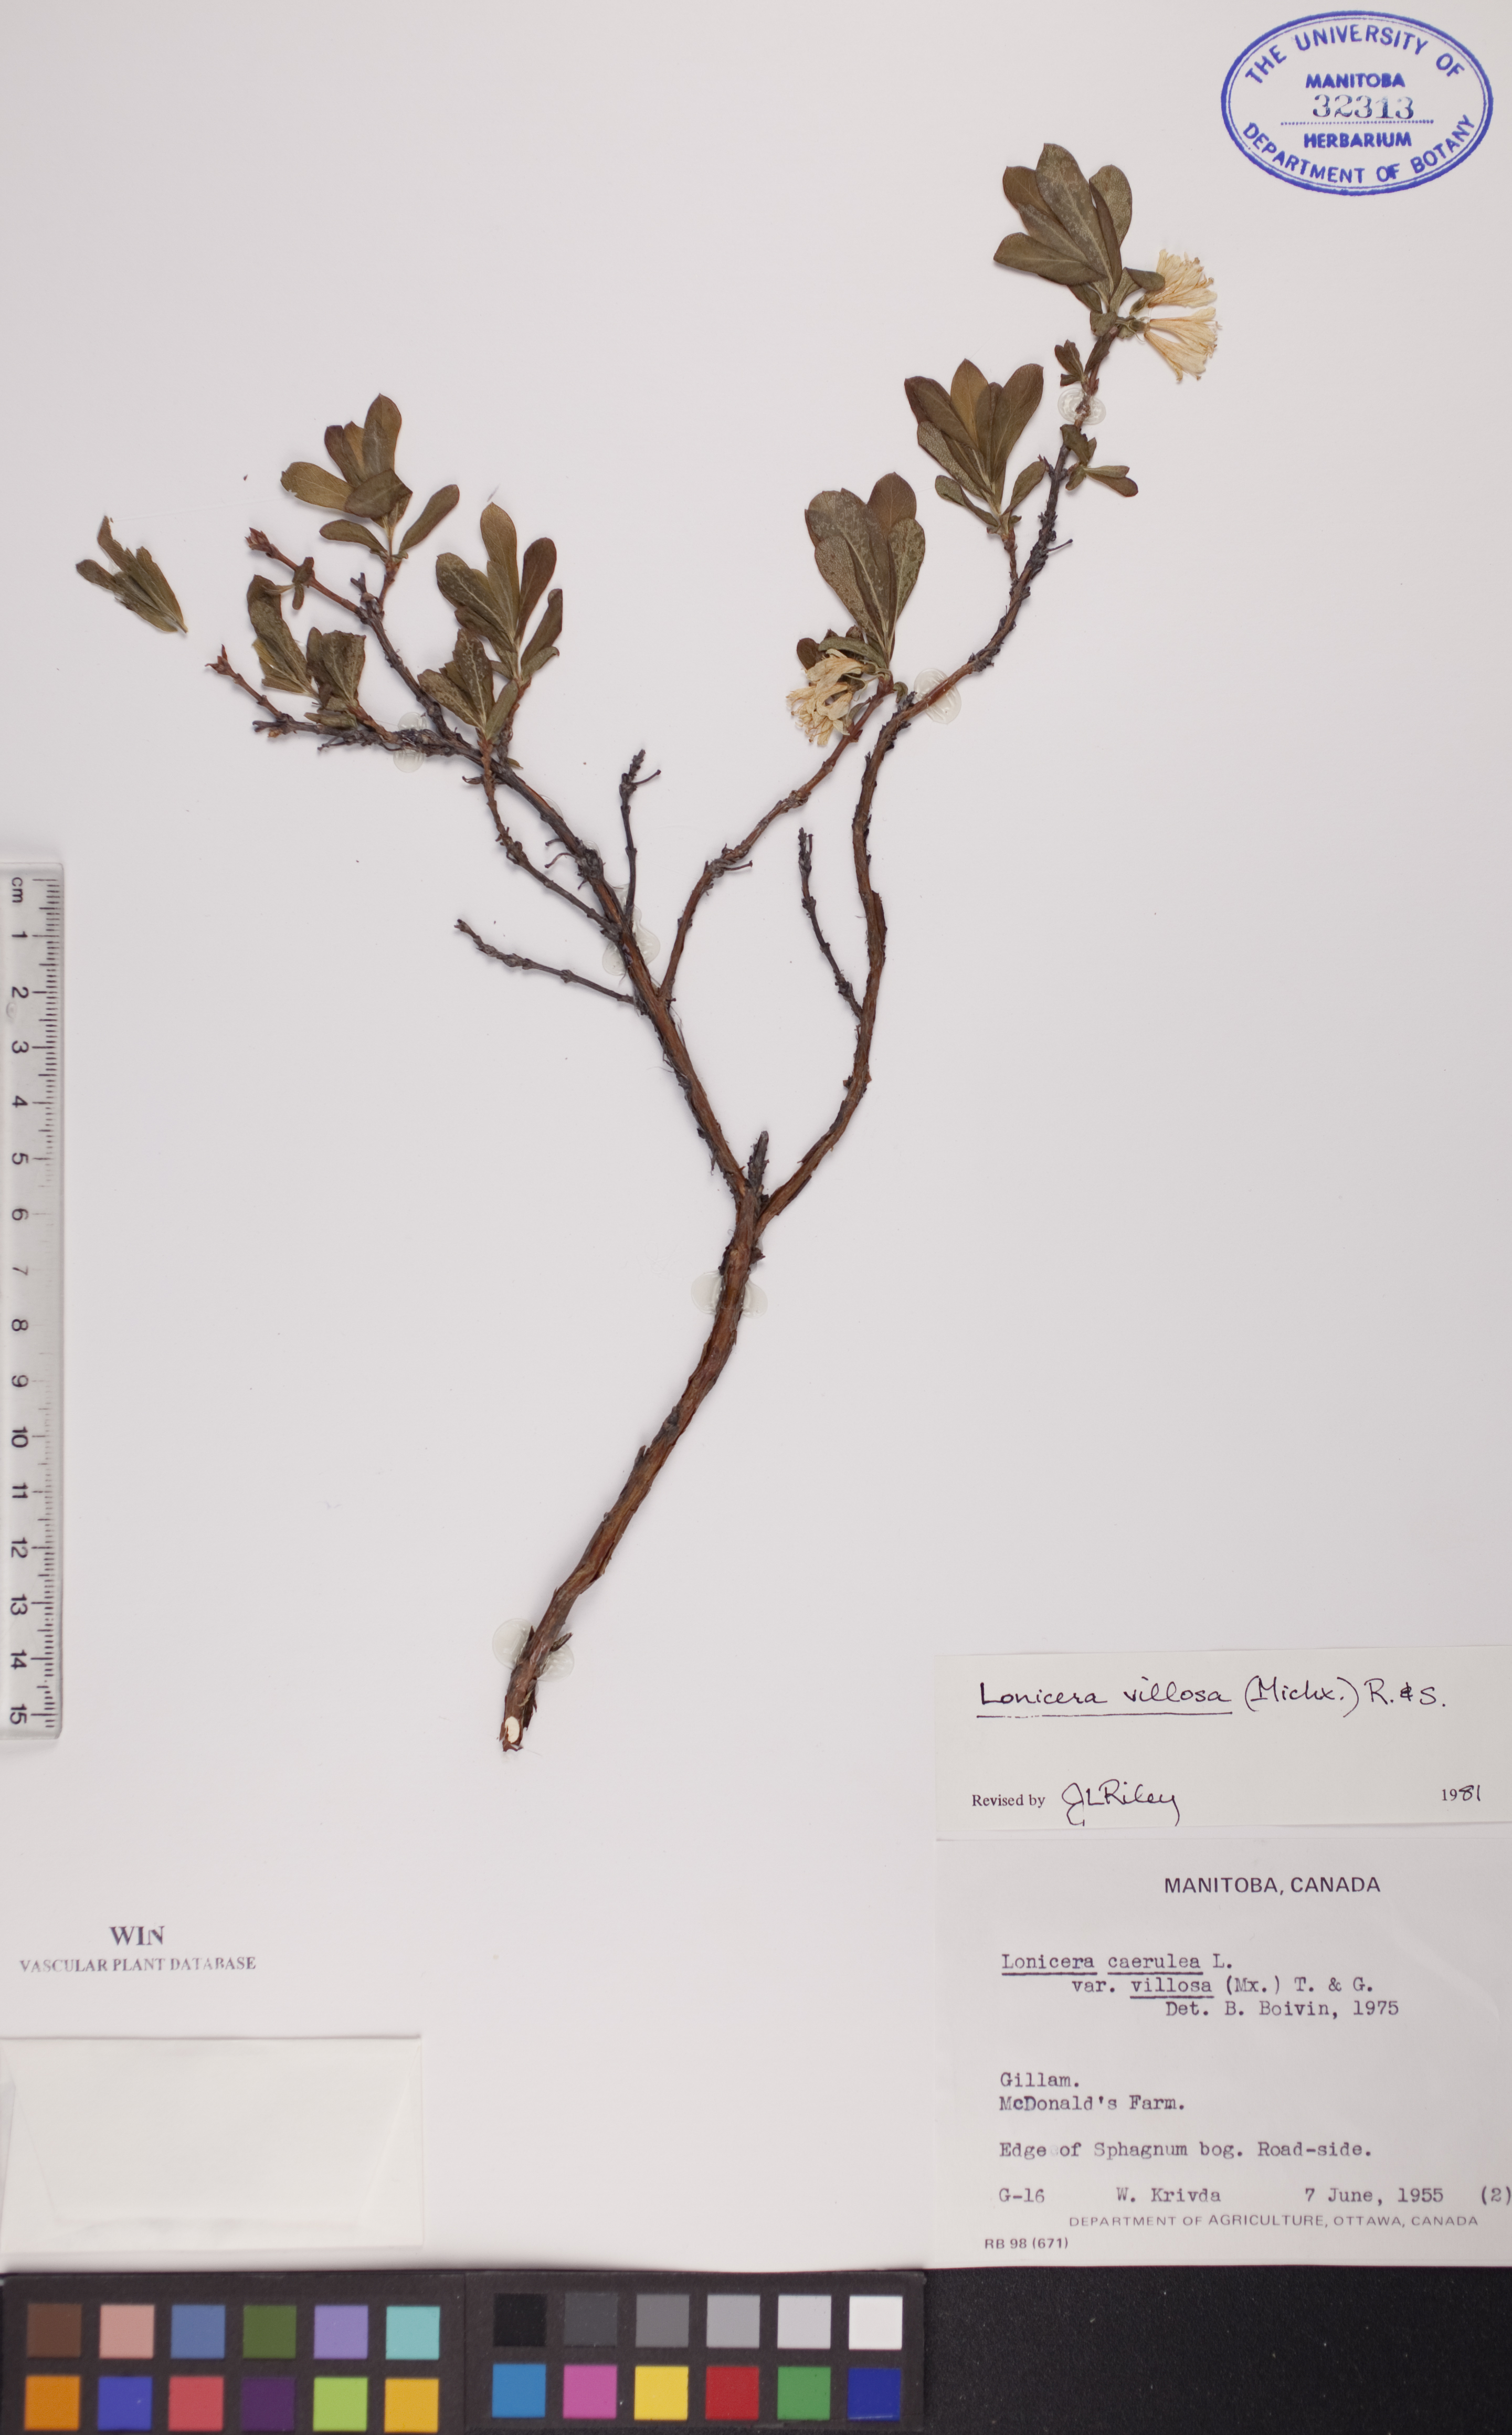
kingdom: Plantae
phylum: Tracheophyta
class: Magnoliopsida
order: Dipsacales
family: Caprifoliaceae
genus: Lonicera
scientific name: Lonicera villosa
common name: Mountain fly-honeysuckle
